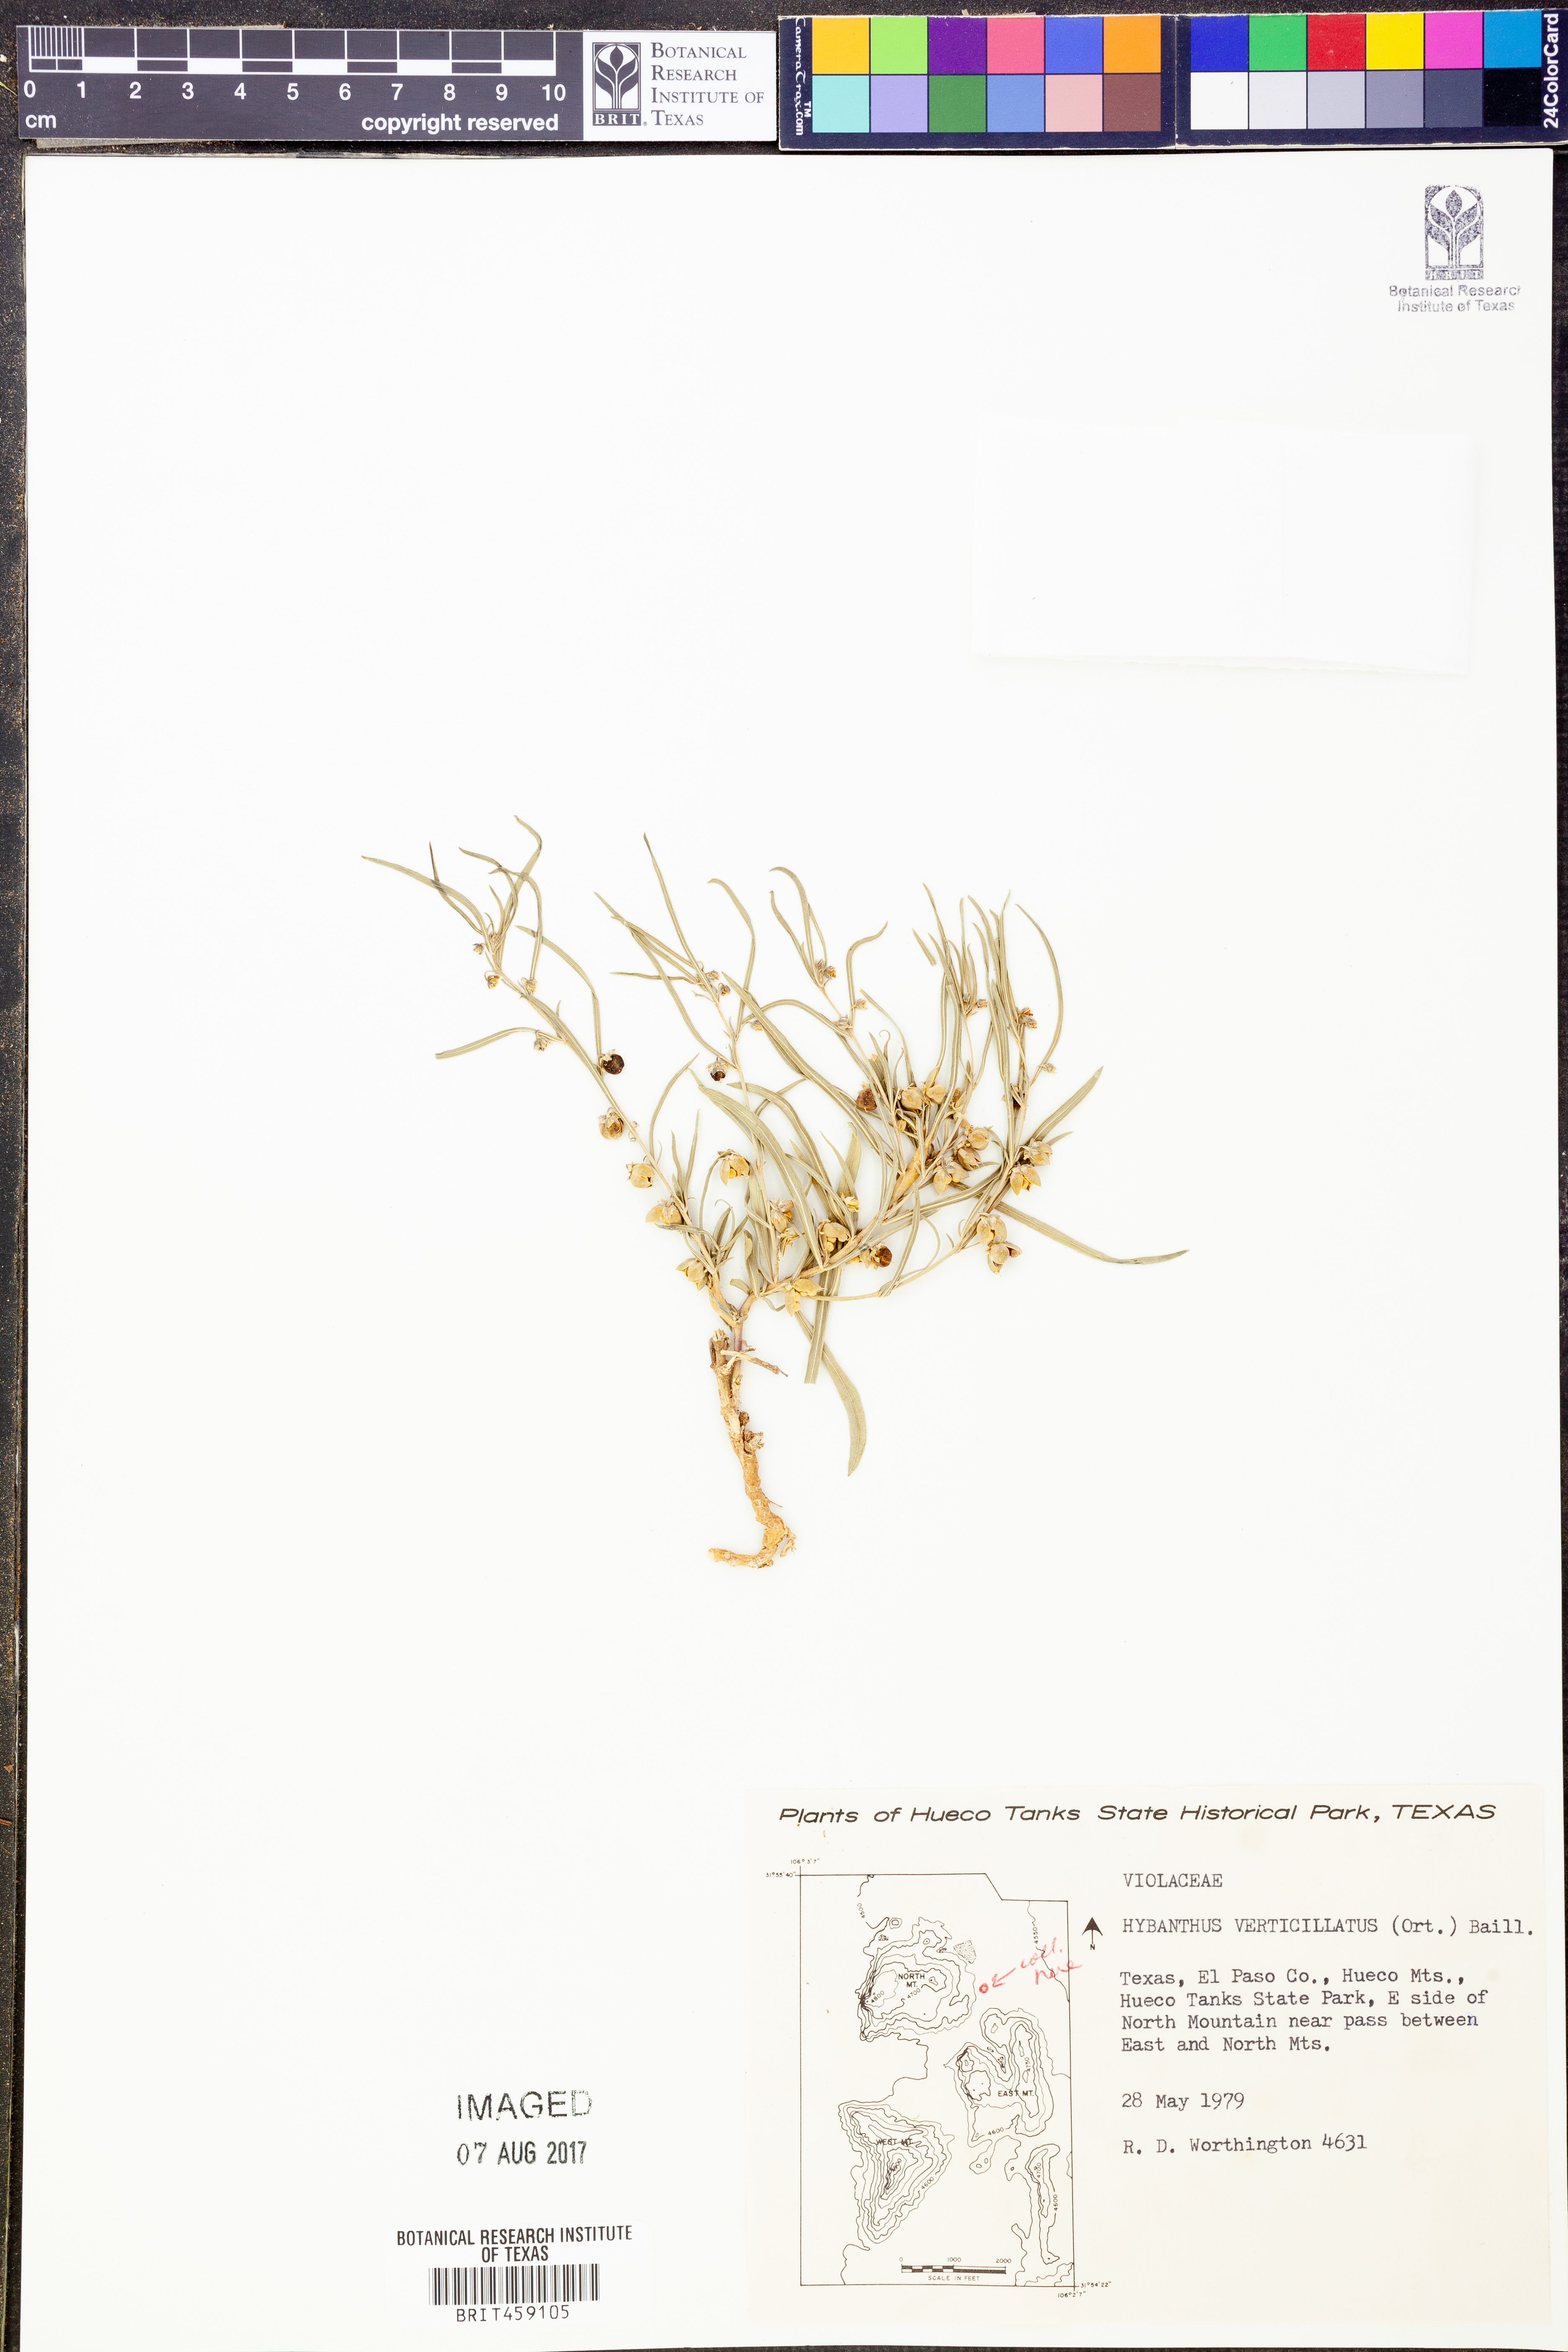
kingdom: Plantae
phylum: Tracheophyta
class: Magnoliopsida
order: Malpighiales
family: Violaceae
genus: Pombalia
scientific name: Pombalia verticillata
